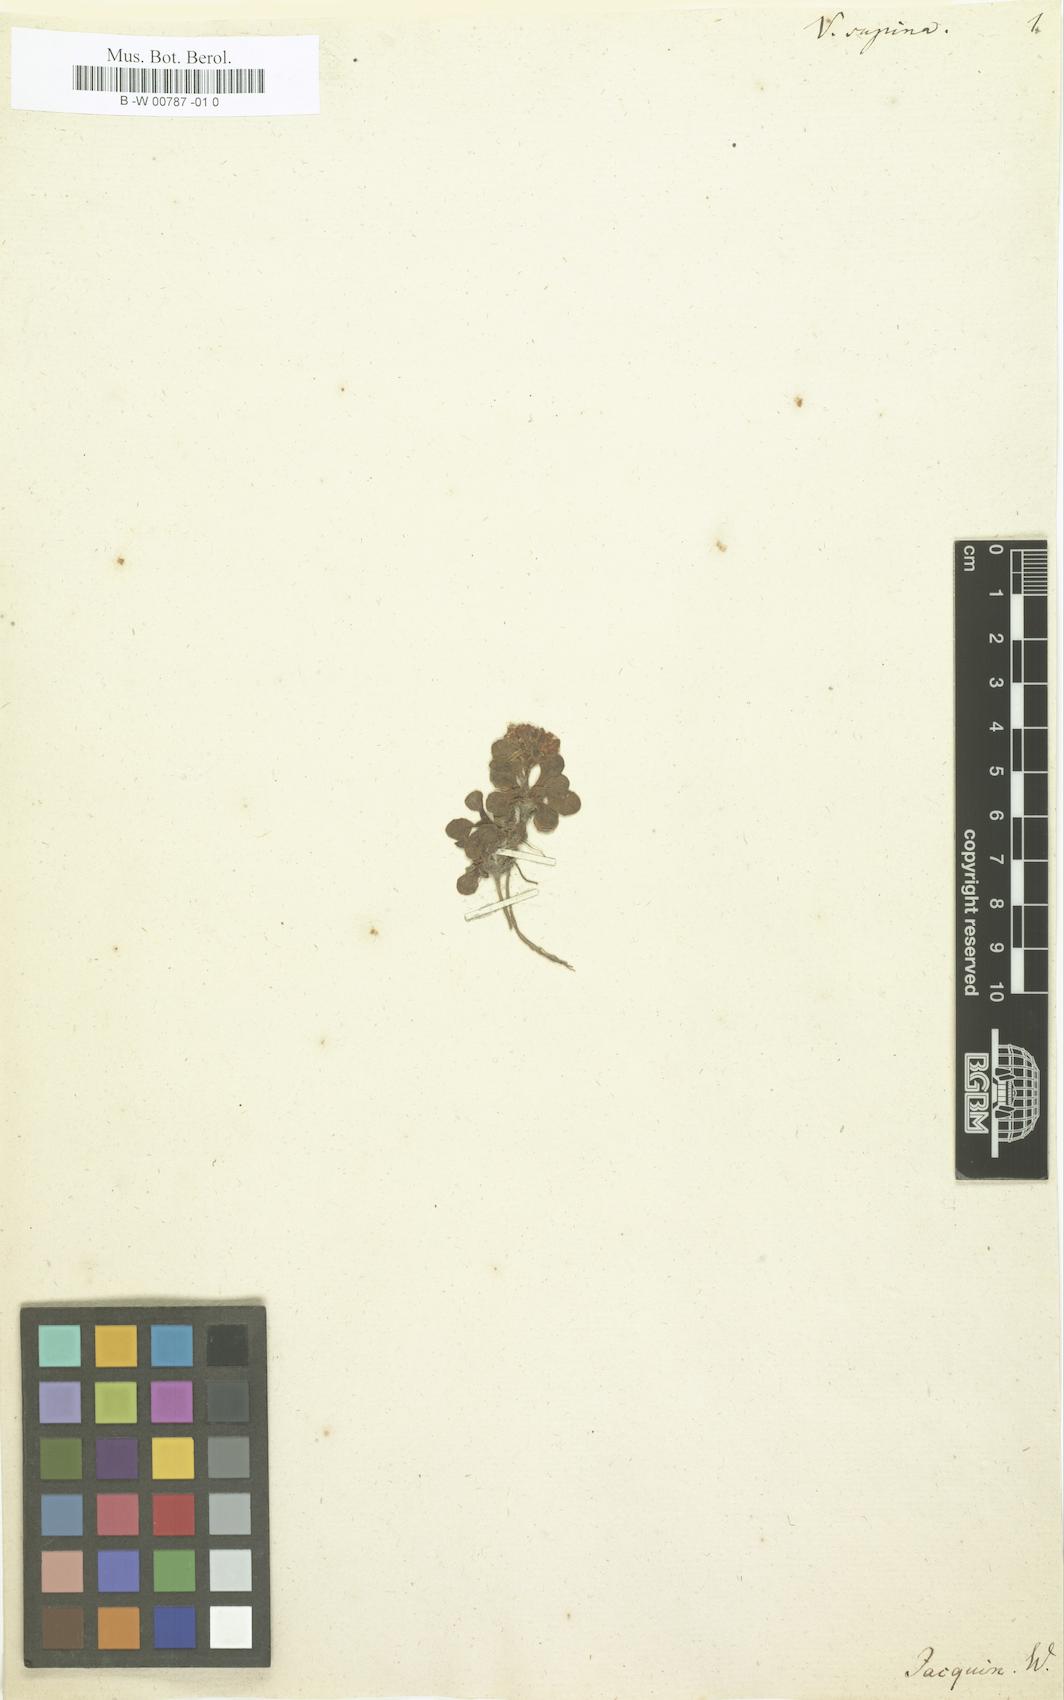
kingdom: Plantae
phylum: Tracheophyta
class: Magnoliopsida
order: Dipsacales
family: Caprifoliaceae
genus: Valeriana
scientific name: Valeriana supina
